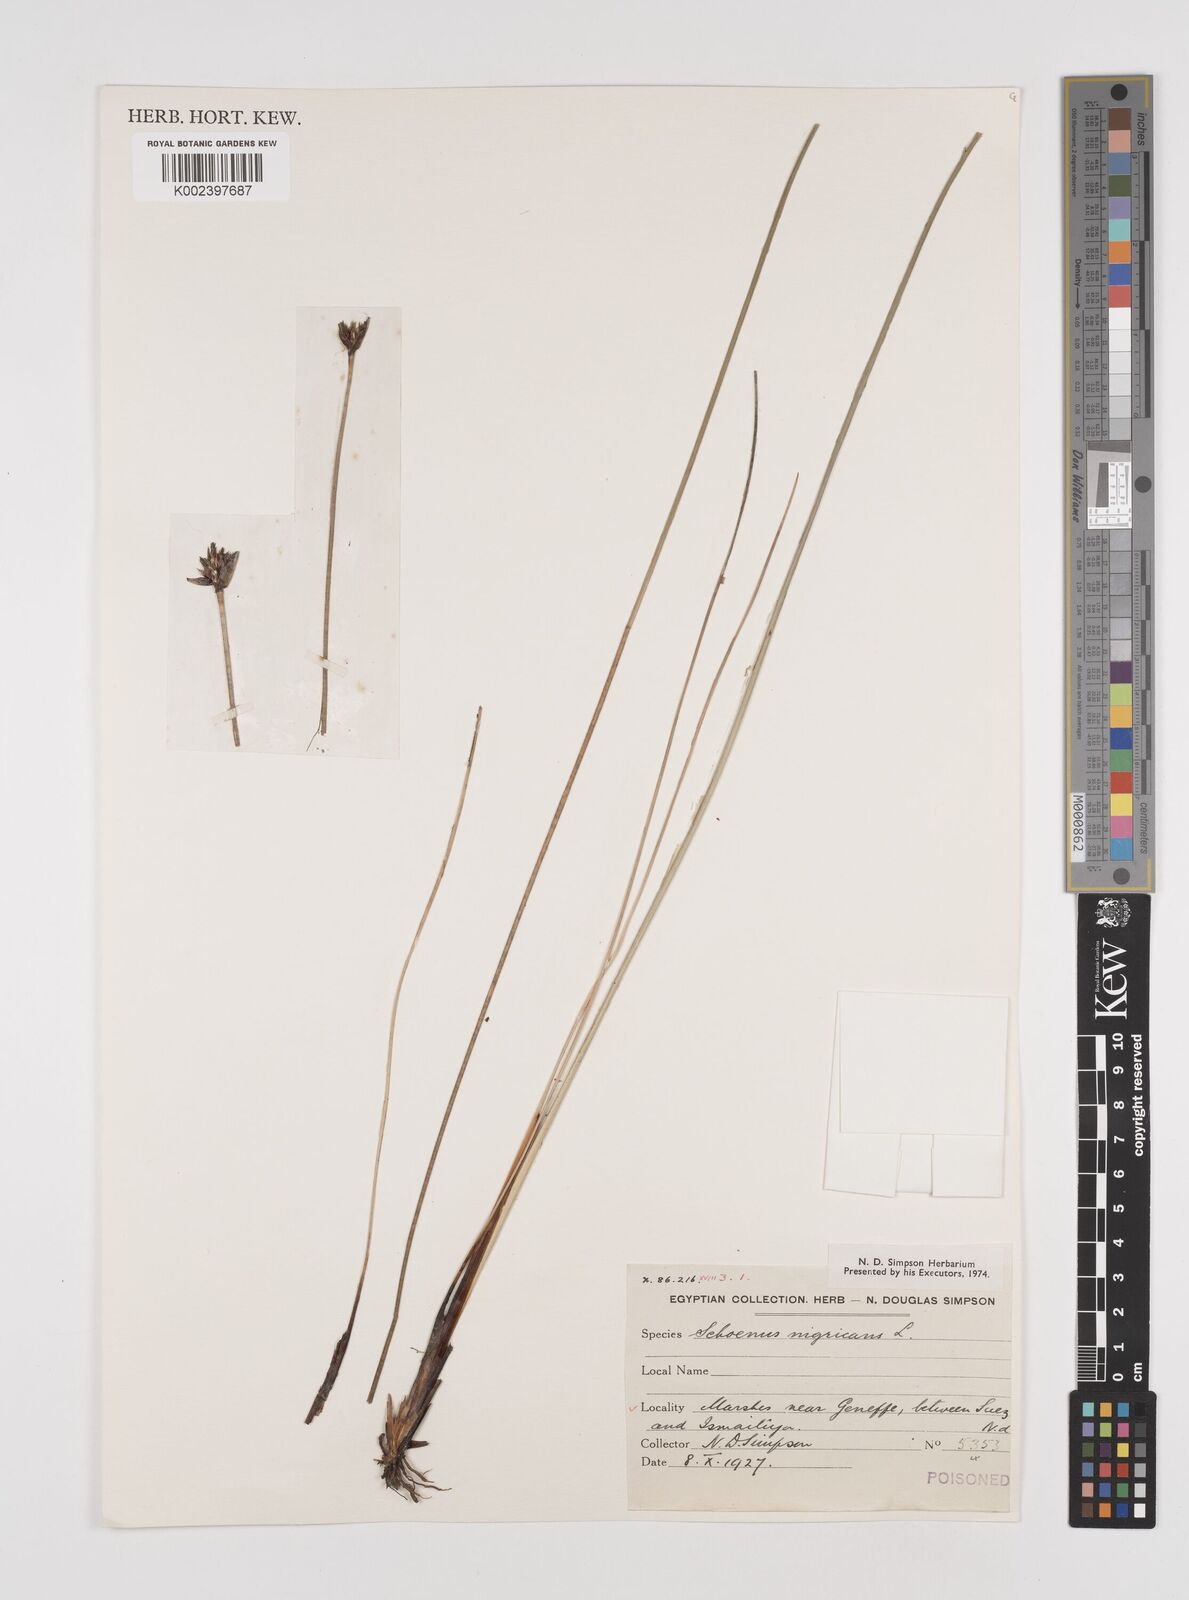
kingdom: Plantae
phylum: Tracheophyta
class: Liliopsida
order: Poales
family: Cyperaceae
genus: Schoenus
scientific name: Schoenus nigricans
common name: Black bog-rush
